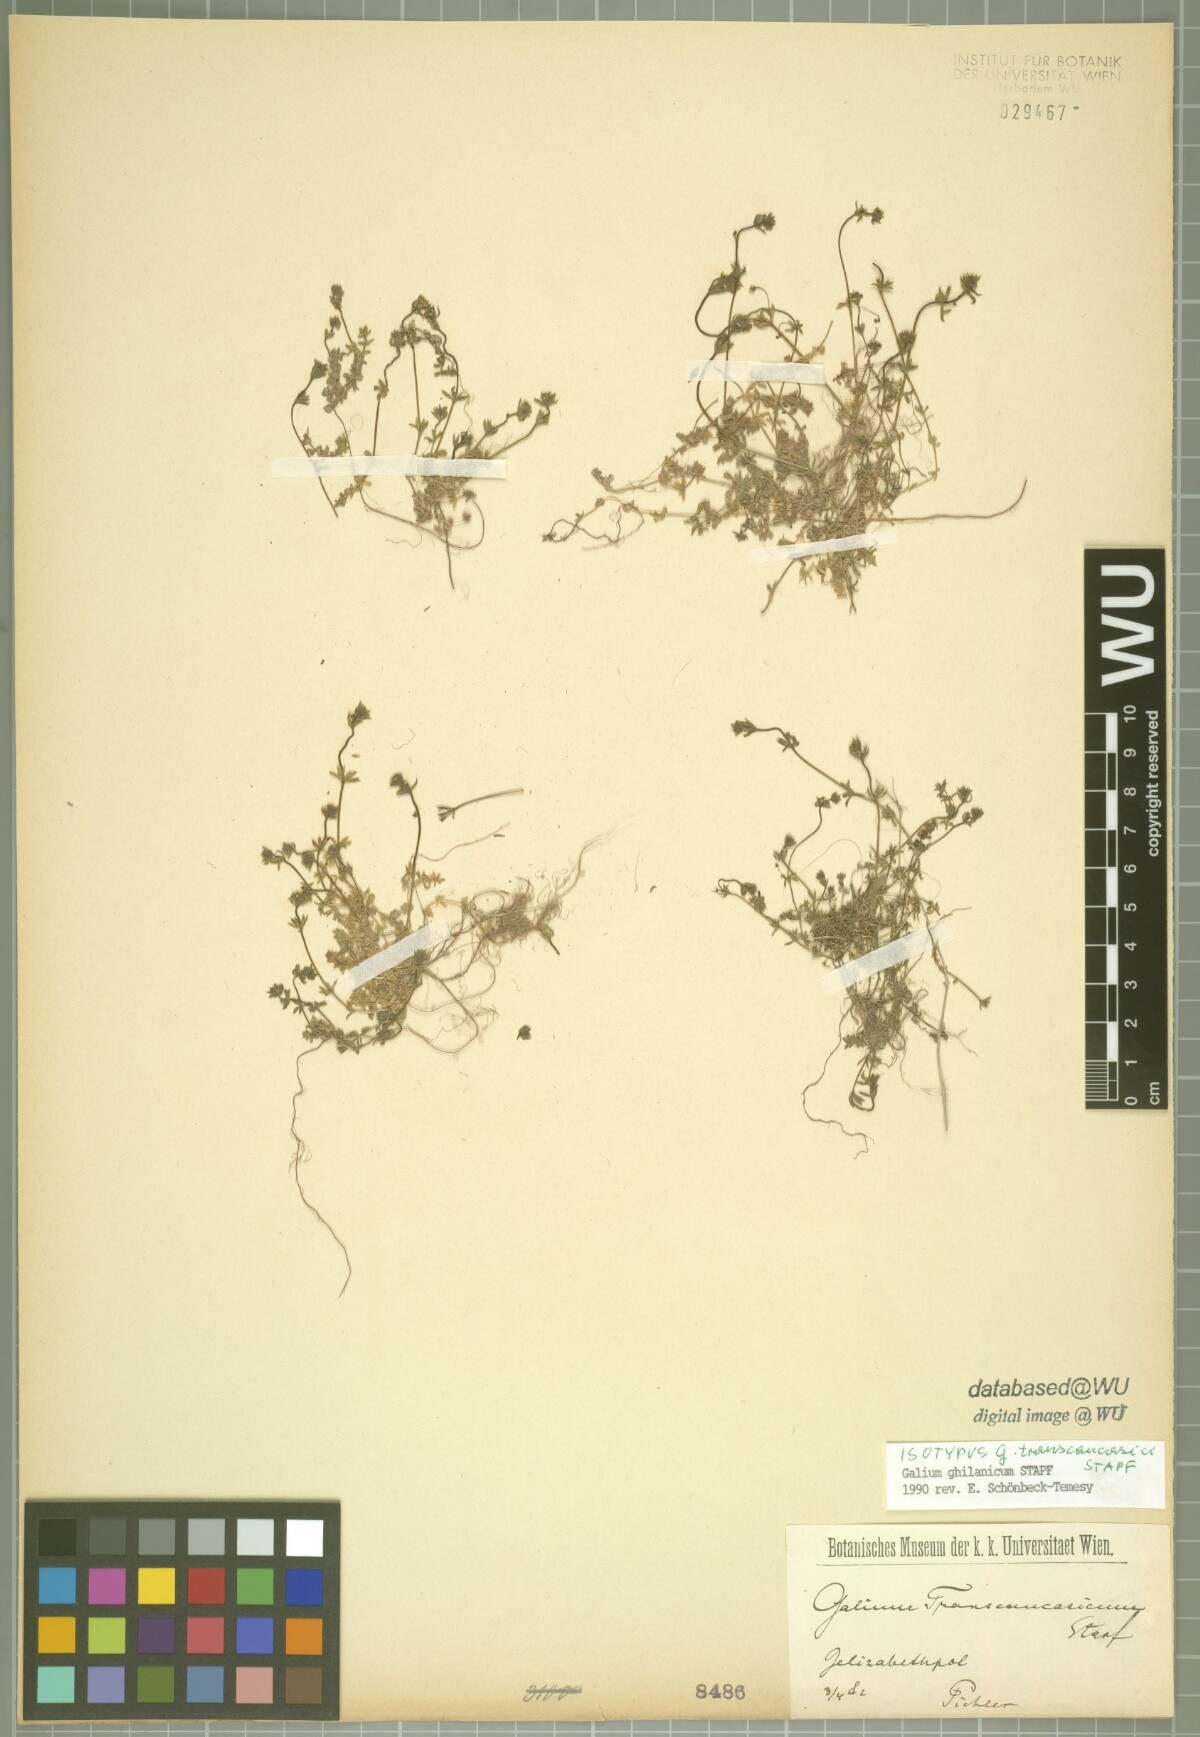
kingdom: Plantae
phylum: Tracheophyta
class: Magnoliopsida
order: Gentianales
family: Rubiaceae
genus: Galium
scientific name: Galium ghilanicum
